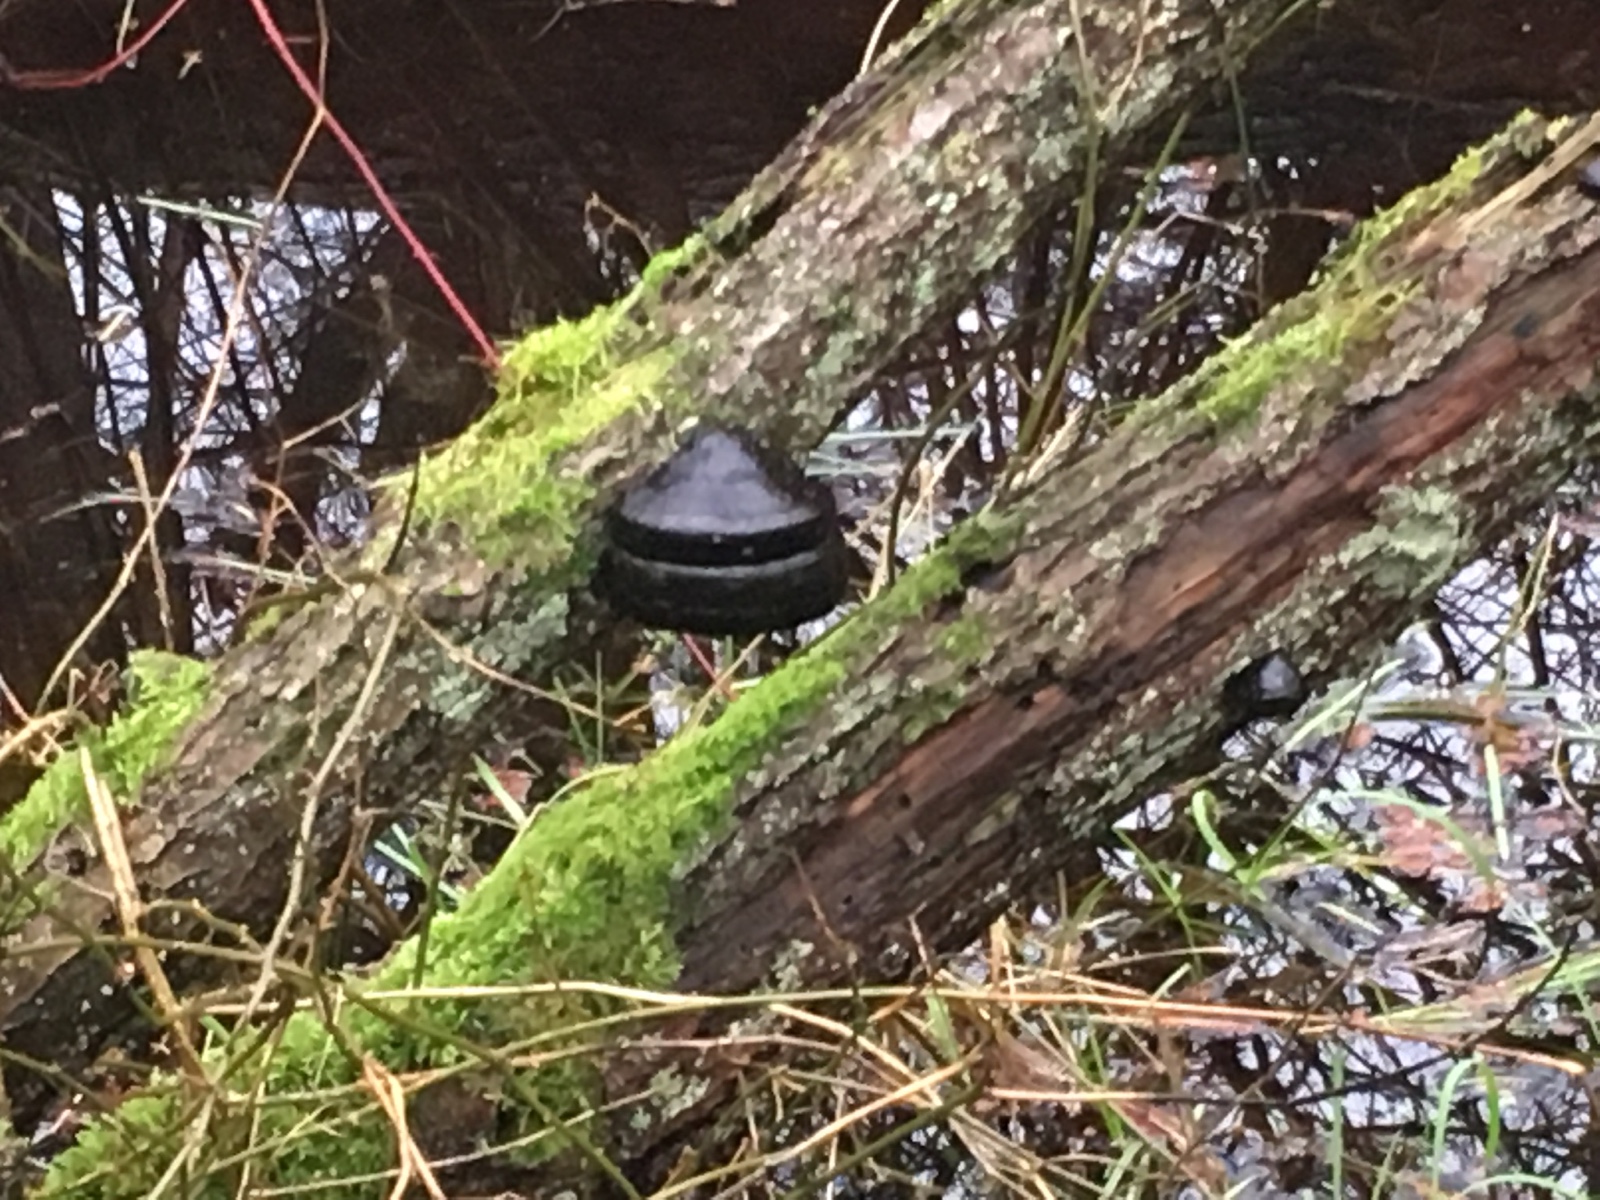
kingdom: Fungi
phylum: Basidiomycota
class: Agaricomycetes
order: Polyporales
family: Polyporaceae
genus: Fomes
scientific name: Fomes fomentarius
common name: tøndersvamp
